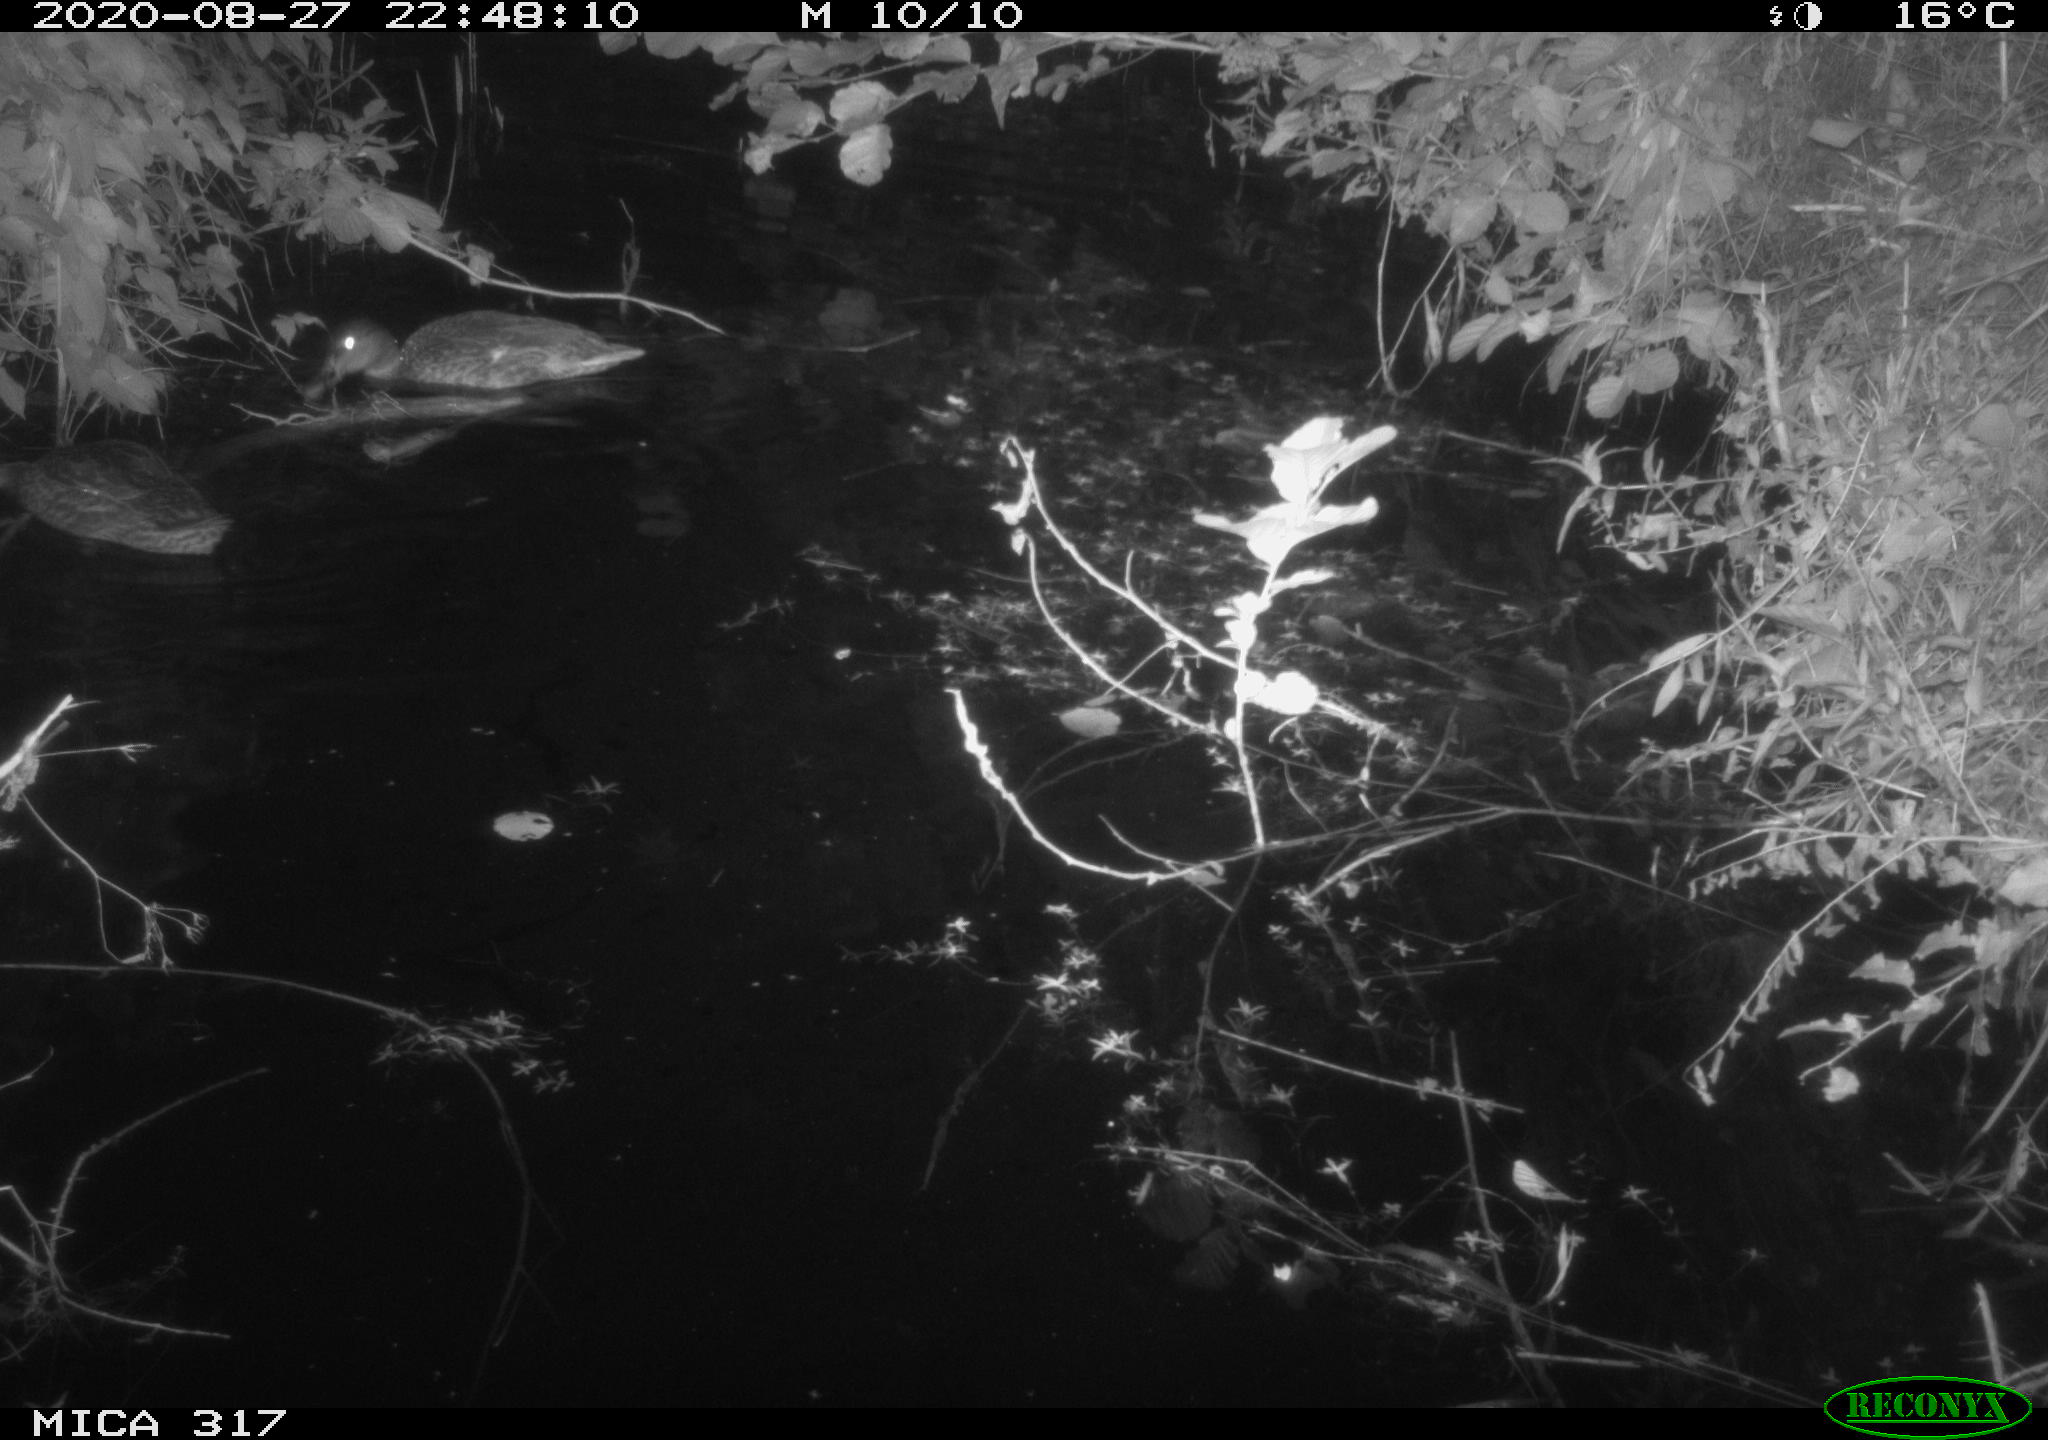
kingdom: Animalia
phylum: Chordata
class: Aves
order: Anseriformes
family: Anatidae
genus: Anas
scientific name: Anas platyrhynchos
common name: Mallard
